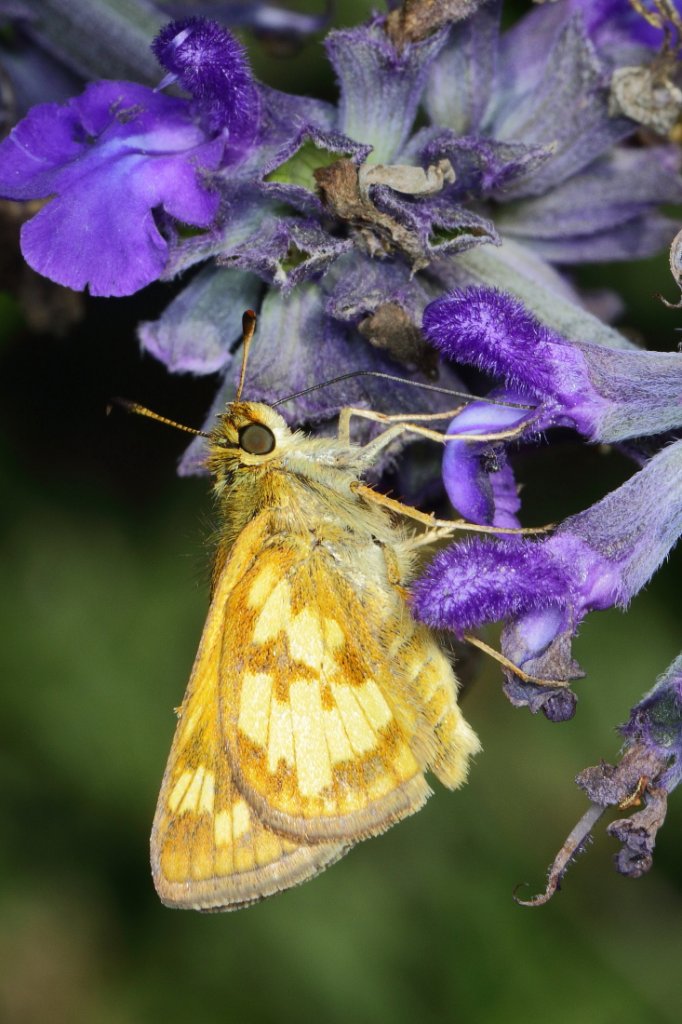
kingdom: Animalia
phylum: Arthropoda
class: Insecta
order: Lepidoptera
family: Hesperiidae
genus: Polites
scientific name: Polites coras
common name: Peck's Skipper
